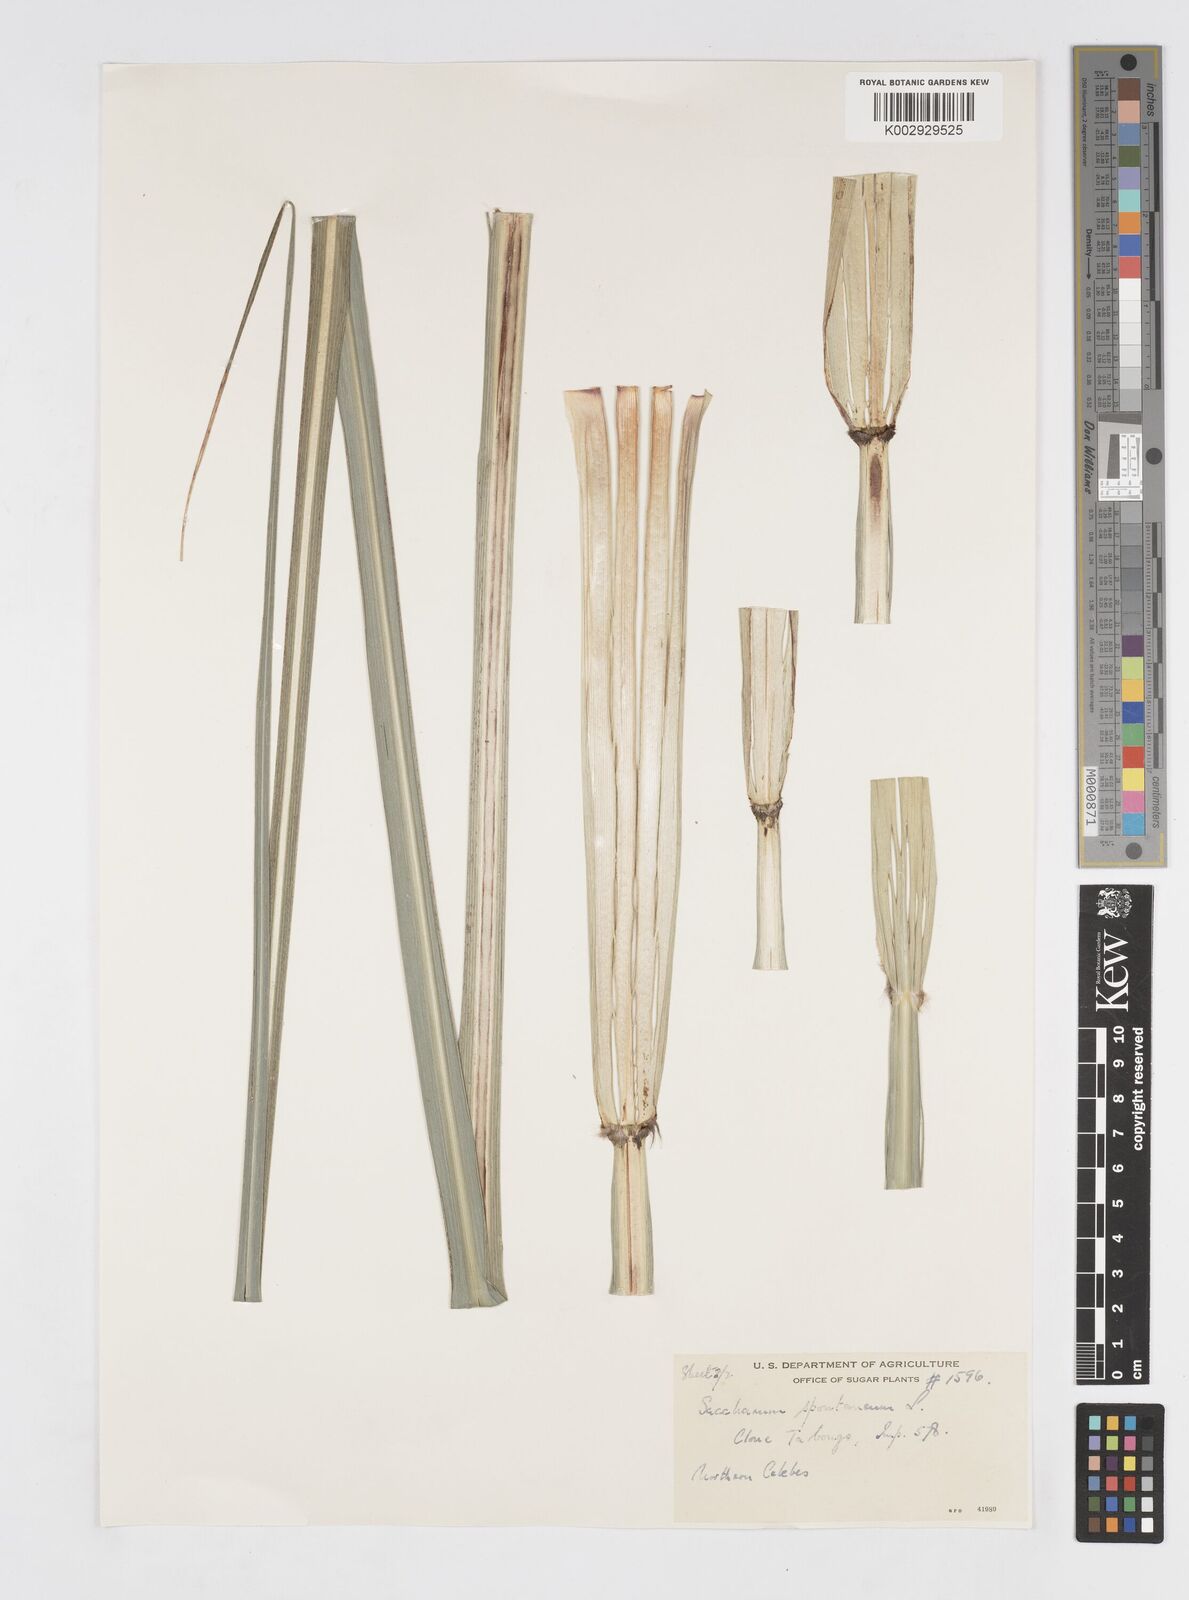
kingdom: Plantae
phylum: Tracheophyta
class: Liliopsida
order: Poales
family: Poaceae
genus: Saccharum
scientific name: Saccharum spontaneum
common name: Wild sugarcane
